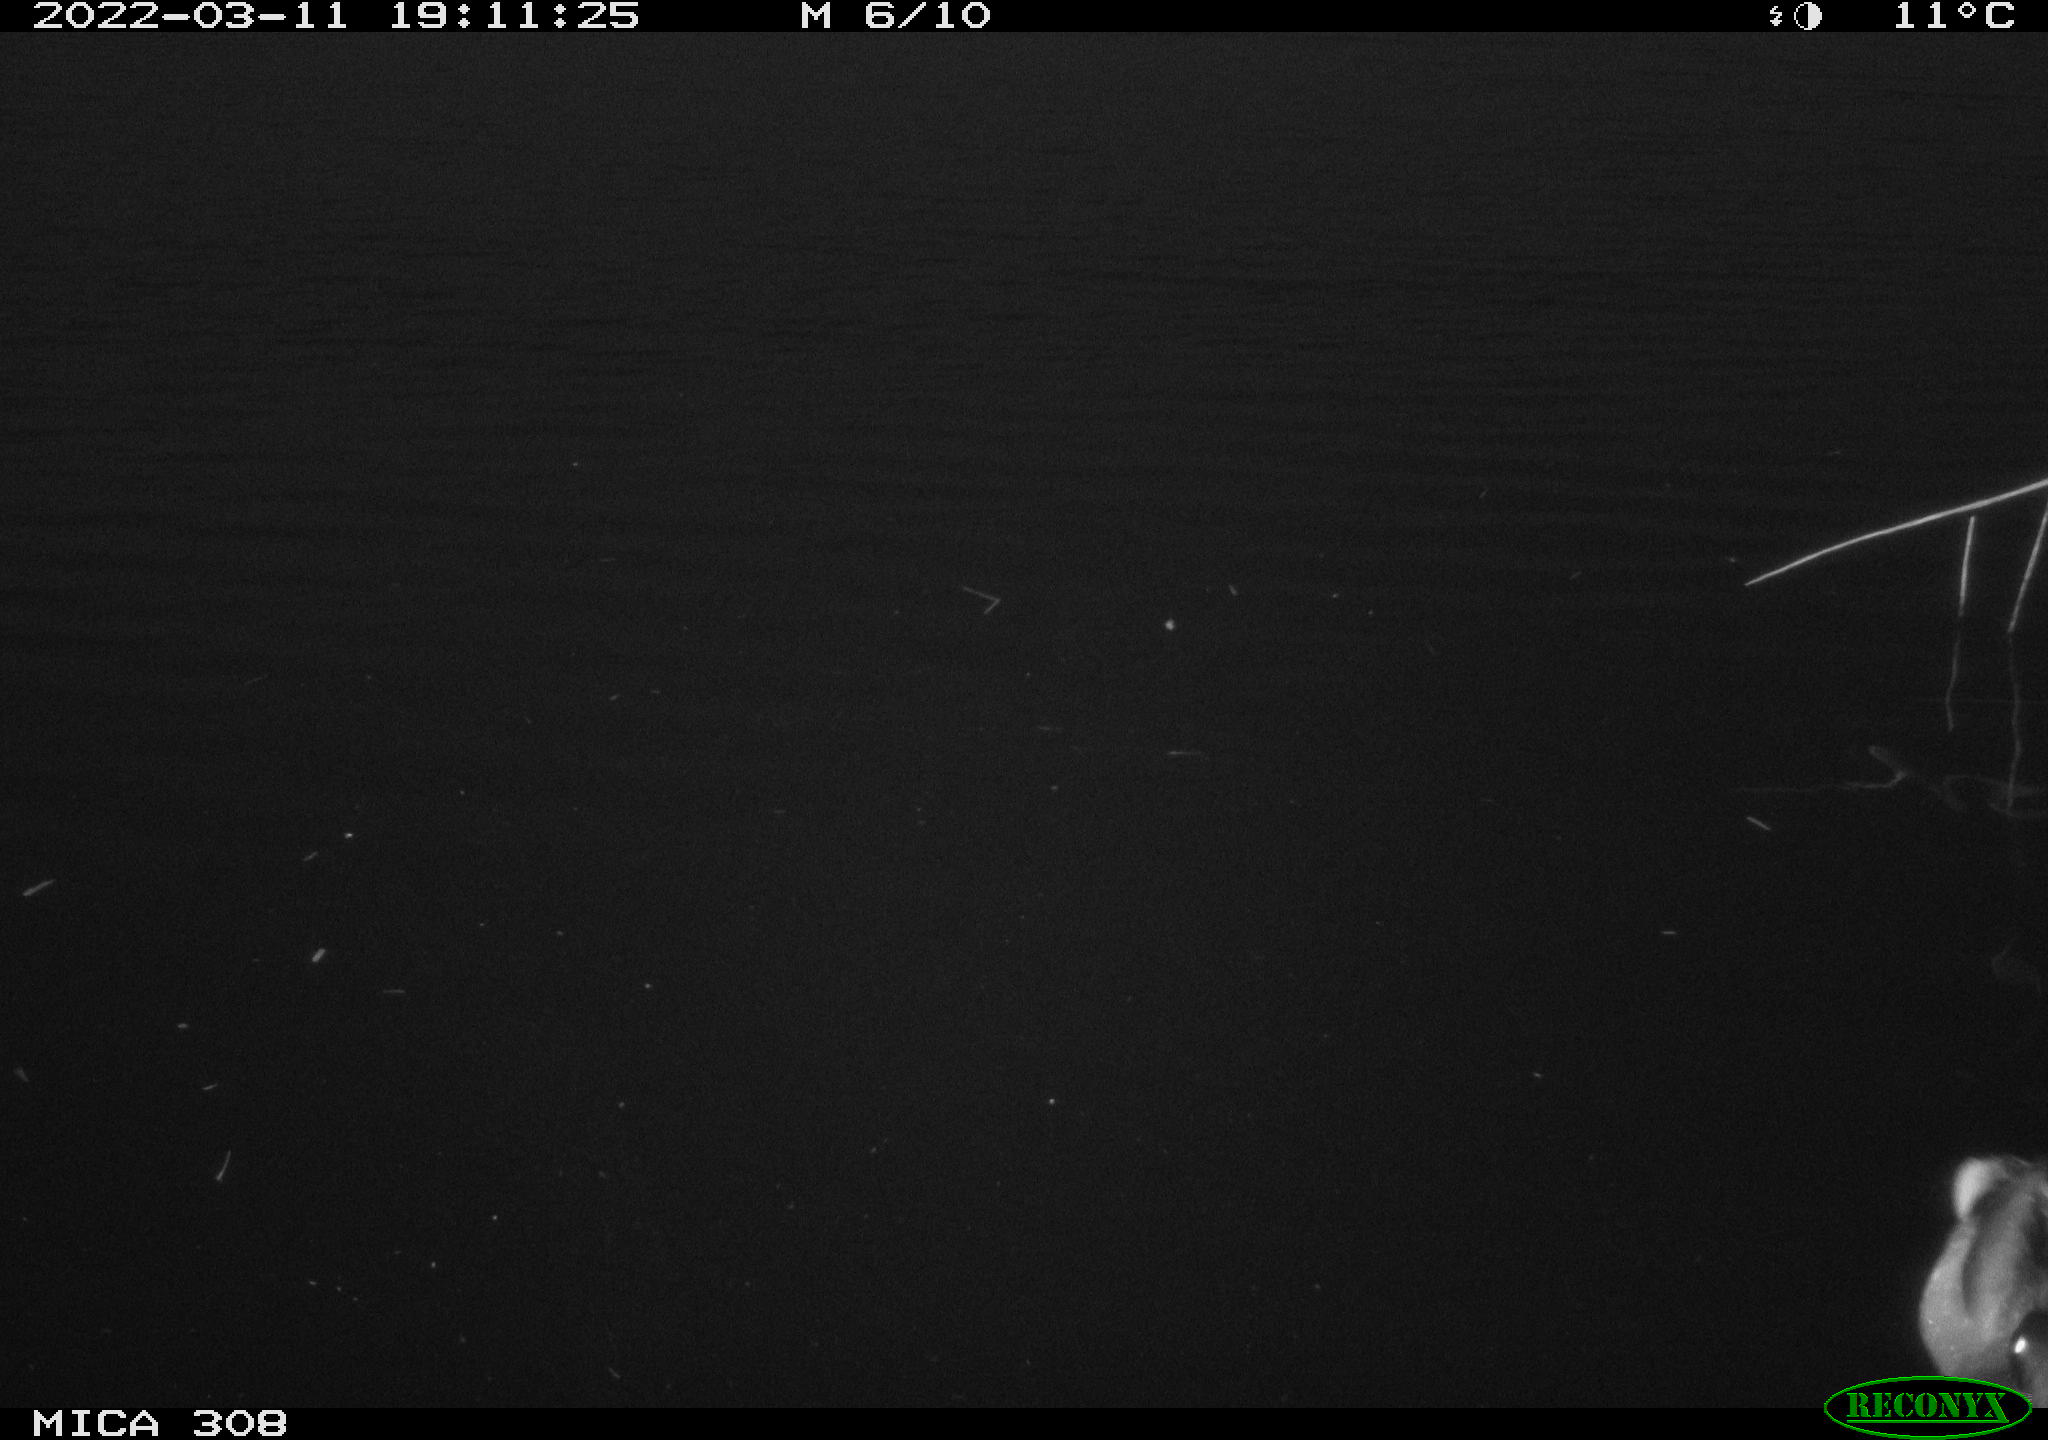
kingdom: Animalia
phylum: Chordata
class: Aves
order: Anseriformes
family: Anatidae
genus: Anas
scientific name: Anas platyrhynchos
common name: Mallard
